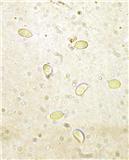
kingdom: Fungi
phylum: Basidiomycota
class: Agaricomycetes
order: Cantharellales
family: Hydnaceae
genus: Cantharellus
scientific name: Cantharellus pallens
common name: bleg kantarel
